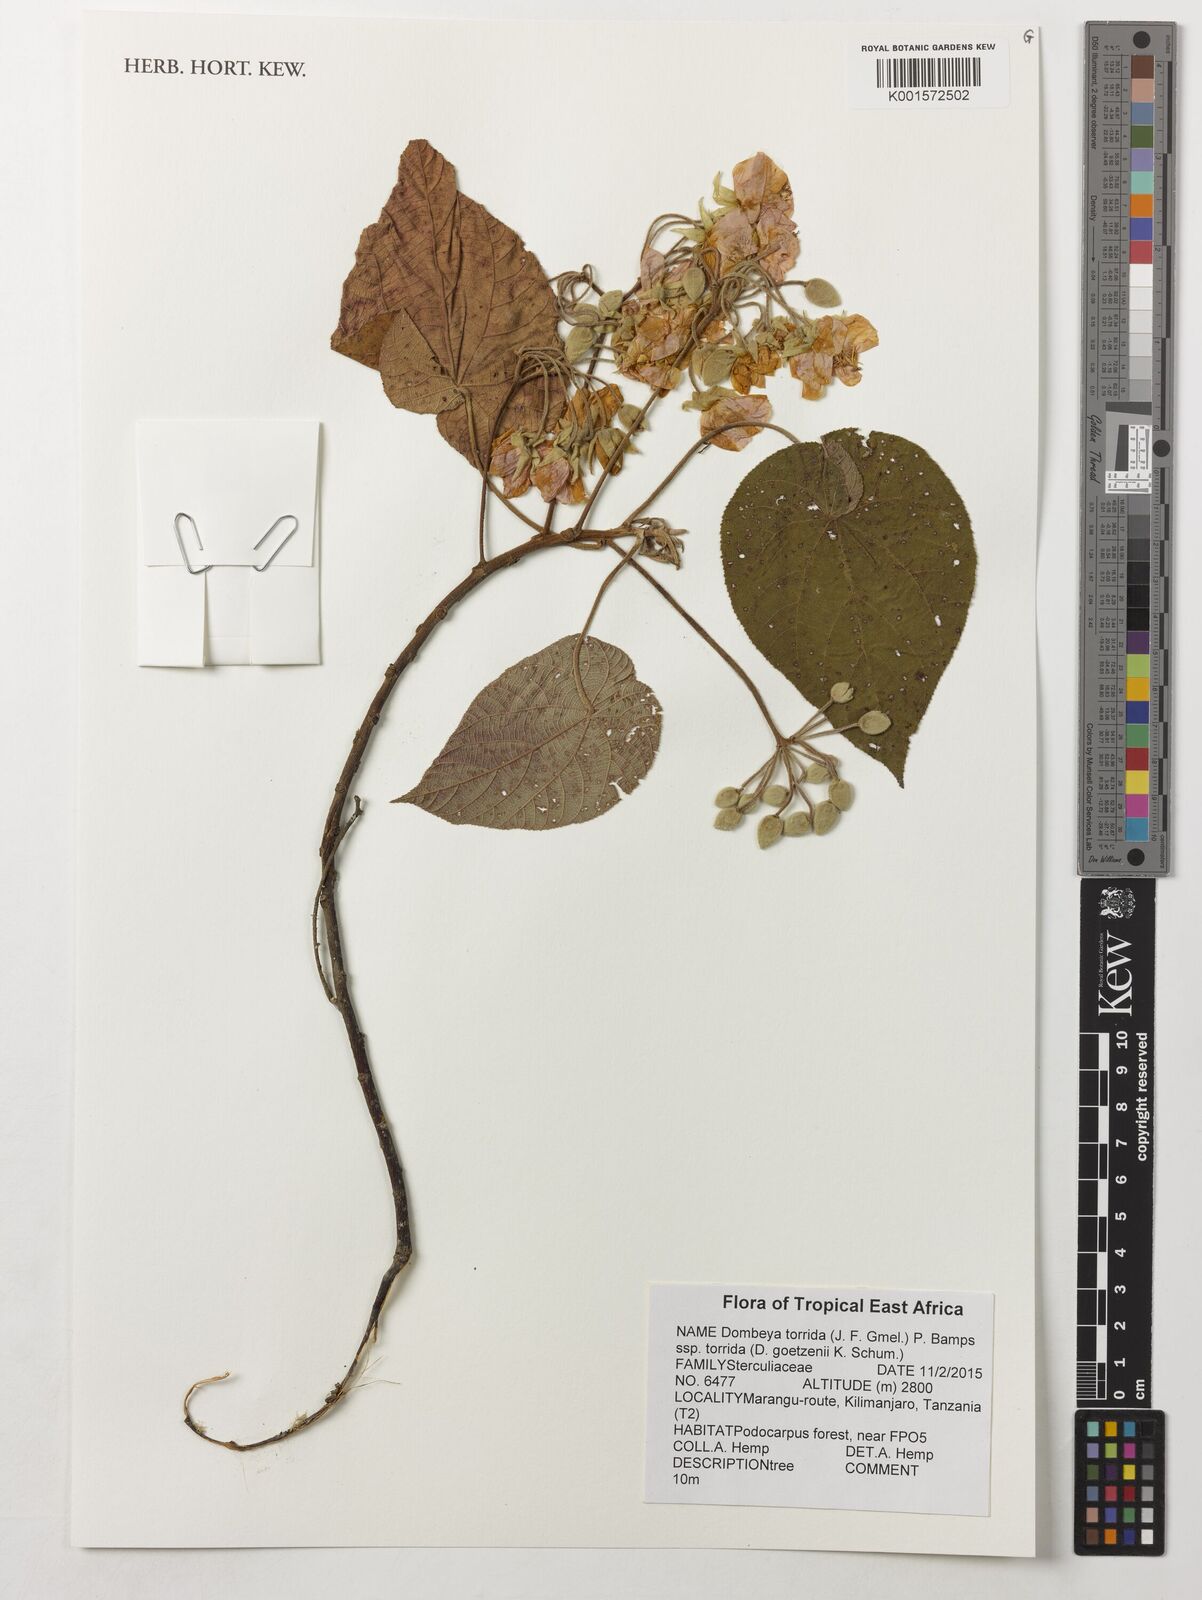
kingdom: Plantae
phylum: Tracheophyta
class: Magnoliopsida
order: Malvales
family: Malvaceae
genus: Dombeya
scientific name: Dombeya torrida
